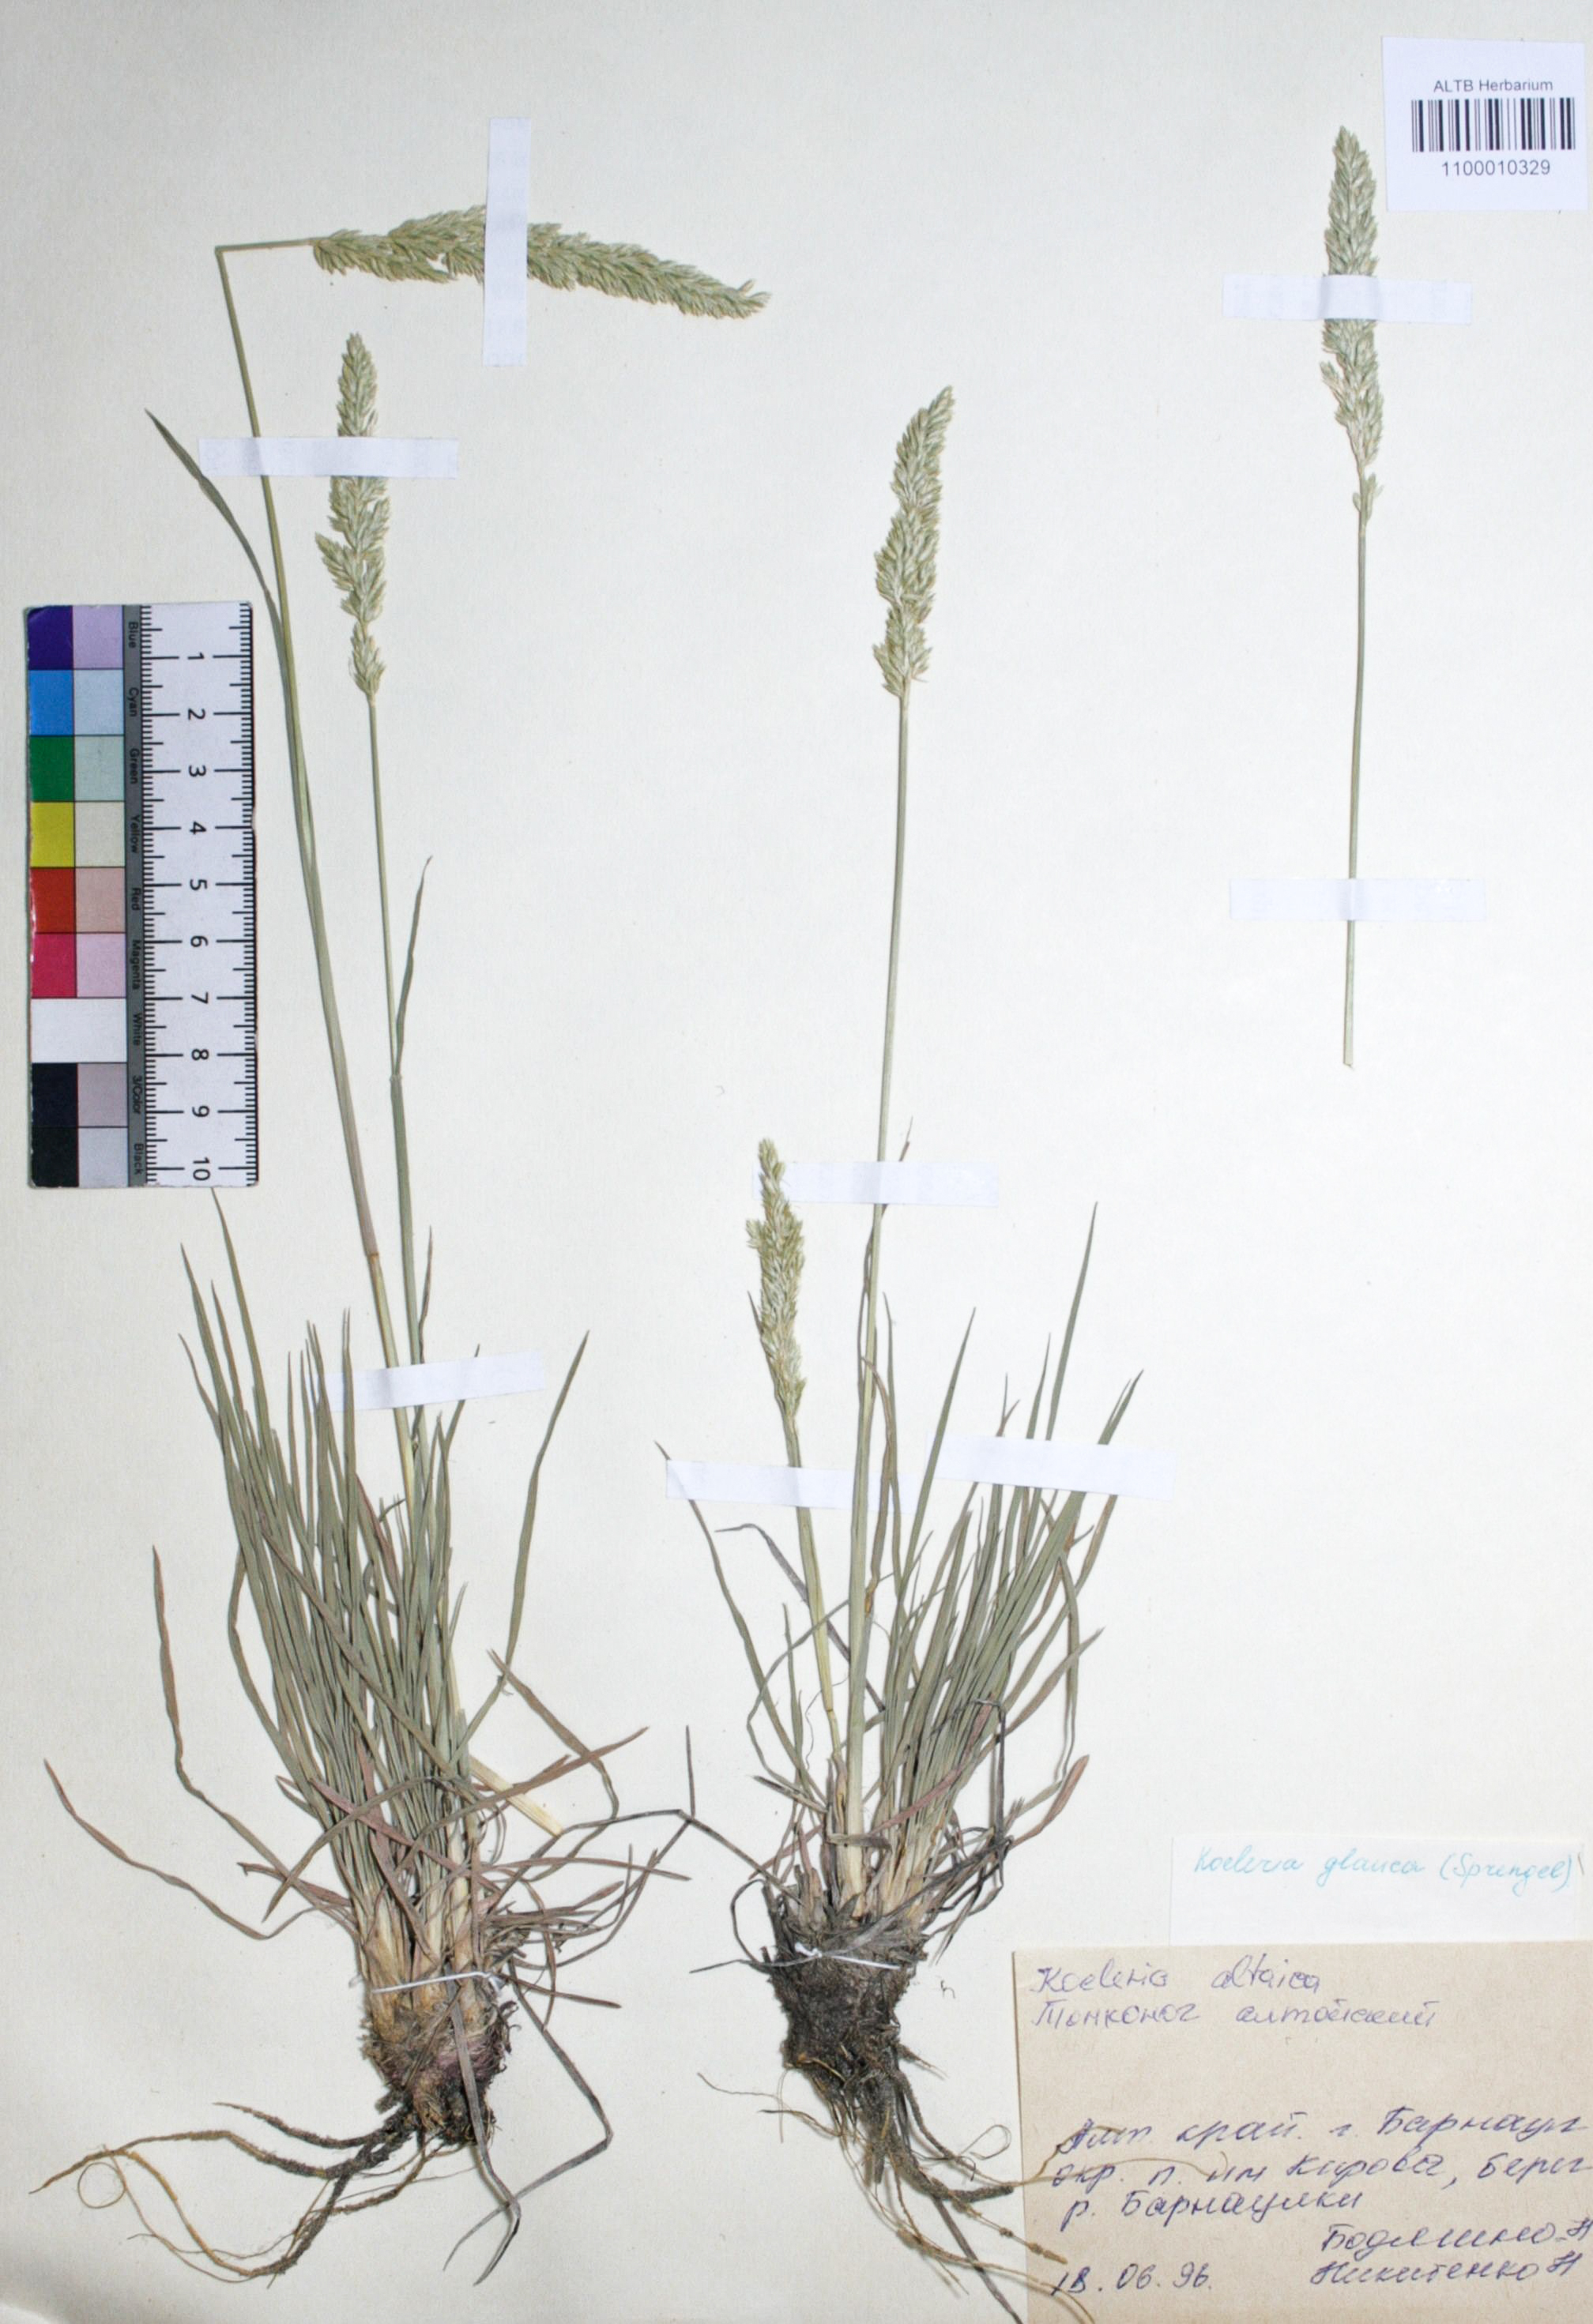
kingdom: Plantae
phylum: Tracheophyta
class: Liliopsida
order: Poales
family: Poaceae
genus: Koeleria
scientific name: Koeleria glauca
